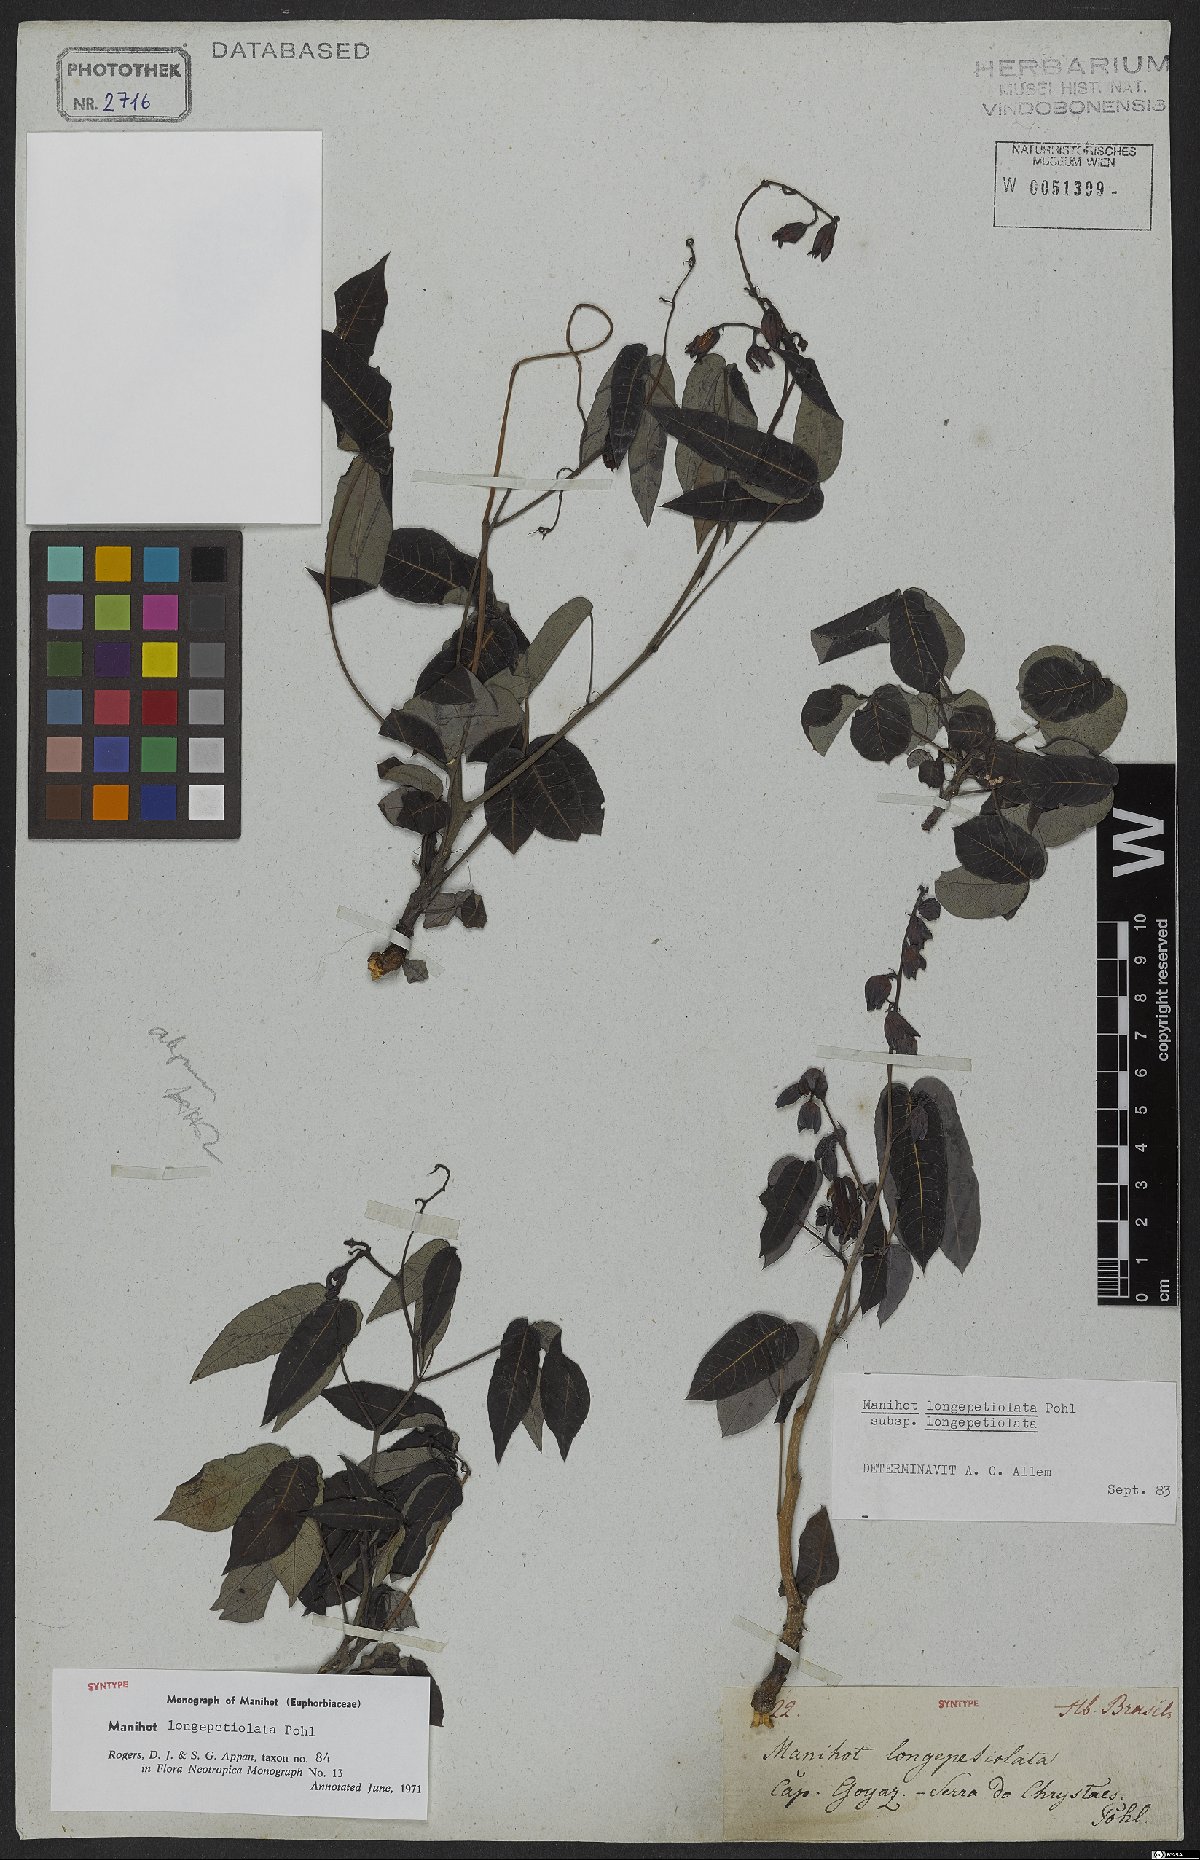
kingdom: Plantae
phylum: Tracheophyta
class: Magnoliopsida
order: Malpighiales
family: Euphorbiaceae
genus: Manihot
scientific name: Manihot longepetiolata
